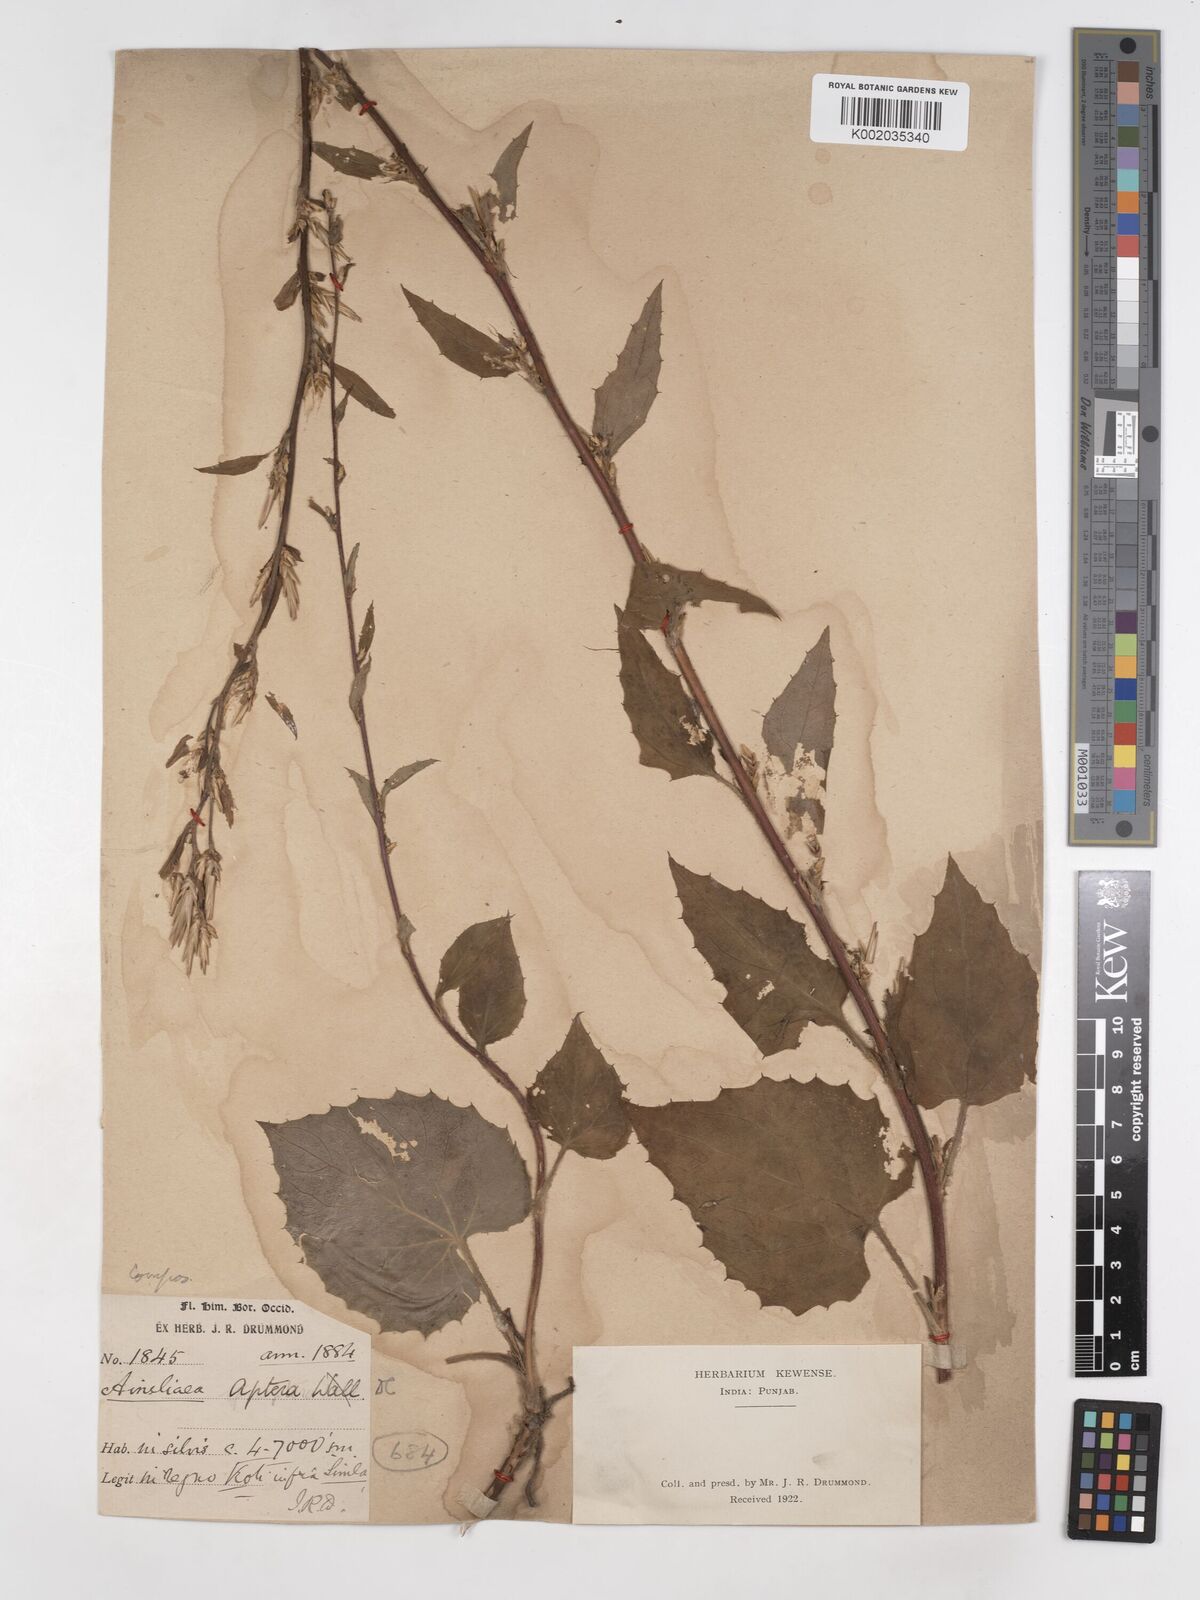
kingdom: Plantae
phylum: Tracheophyta
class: Magnoliopsida
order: Asterales
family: Asteraceae
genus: Ainsliaea
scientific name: Ainsliaea aptera
